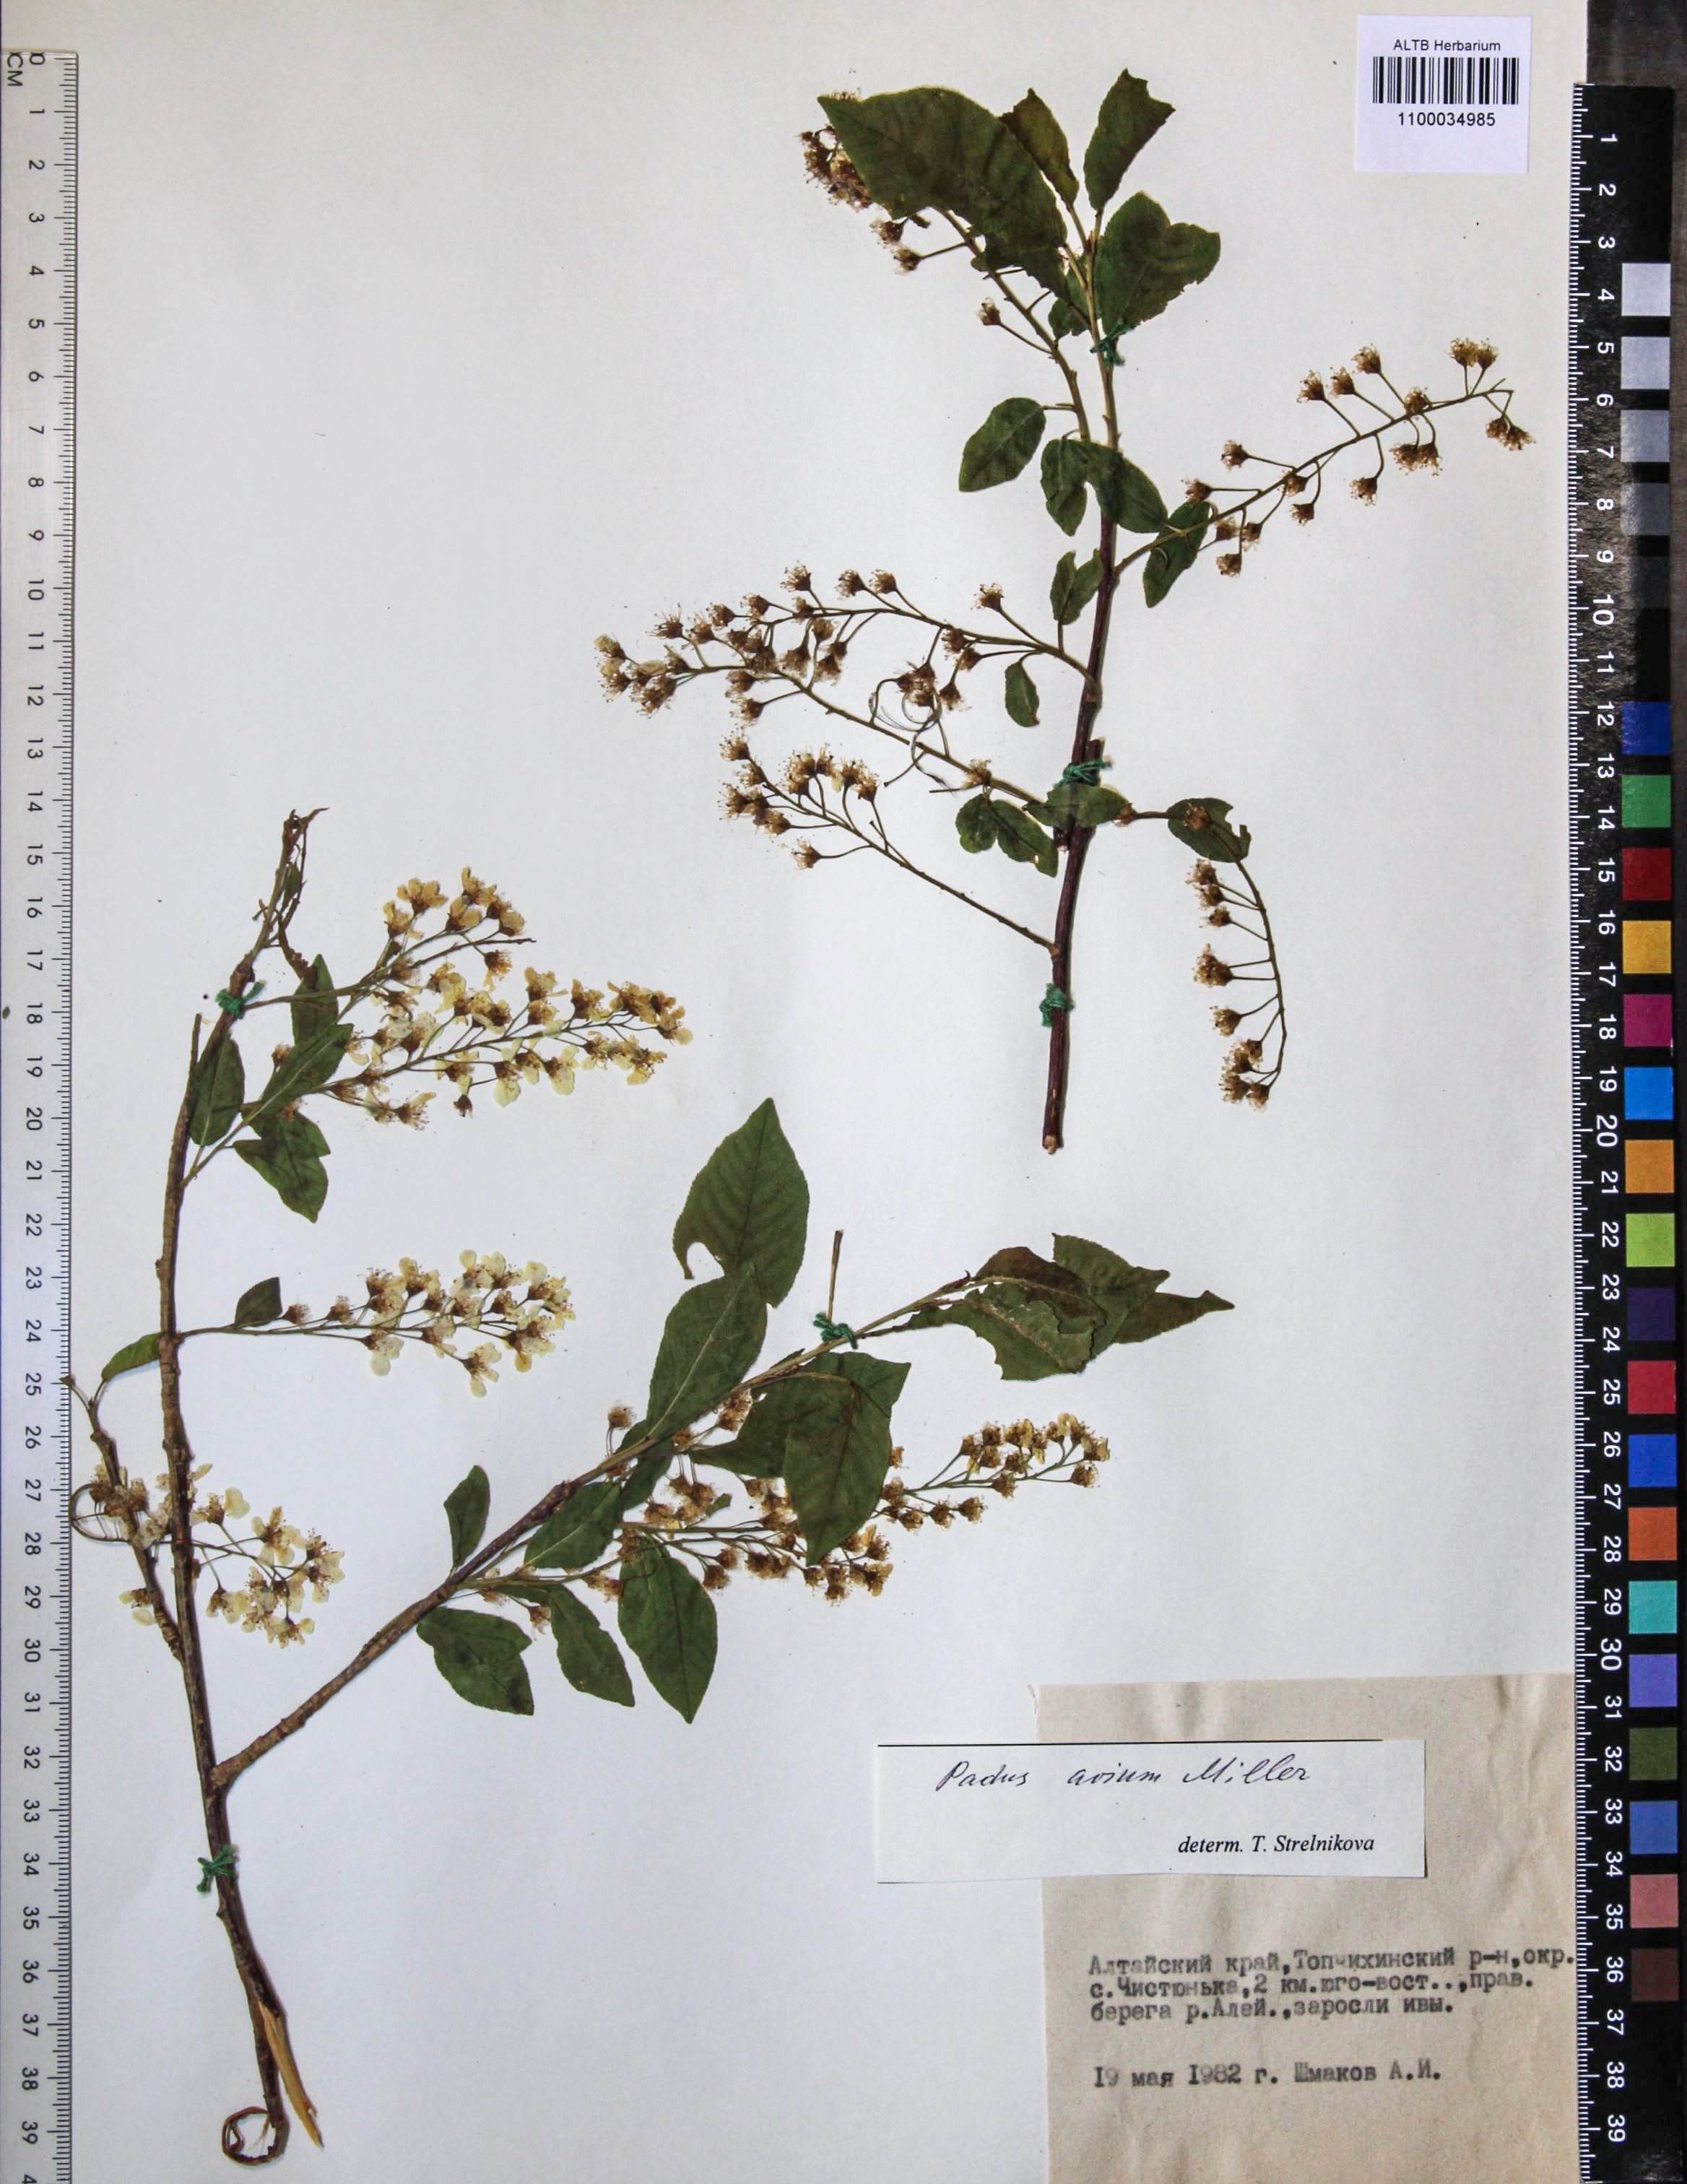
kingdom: Plantae
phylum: Tracheophyta
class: Magnoliopsida
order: Rosales
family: Rosaceae
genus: Prunus
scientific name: Prunus padus
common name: Bird cherry
